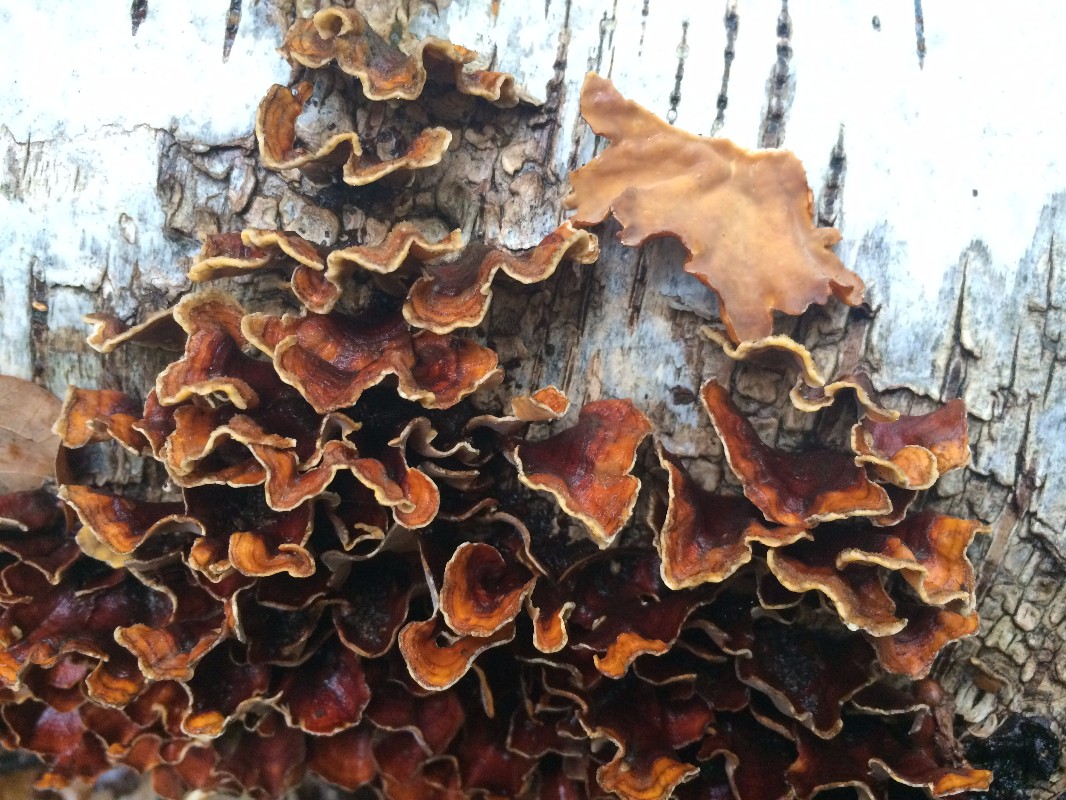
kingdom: Fungi
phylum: Basidiomycota
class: Agaricomycetes
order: Russulales
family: Stereaceae
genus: Stereum
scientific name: Stereum subtomentosum
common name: smuk lædersvamp
